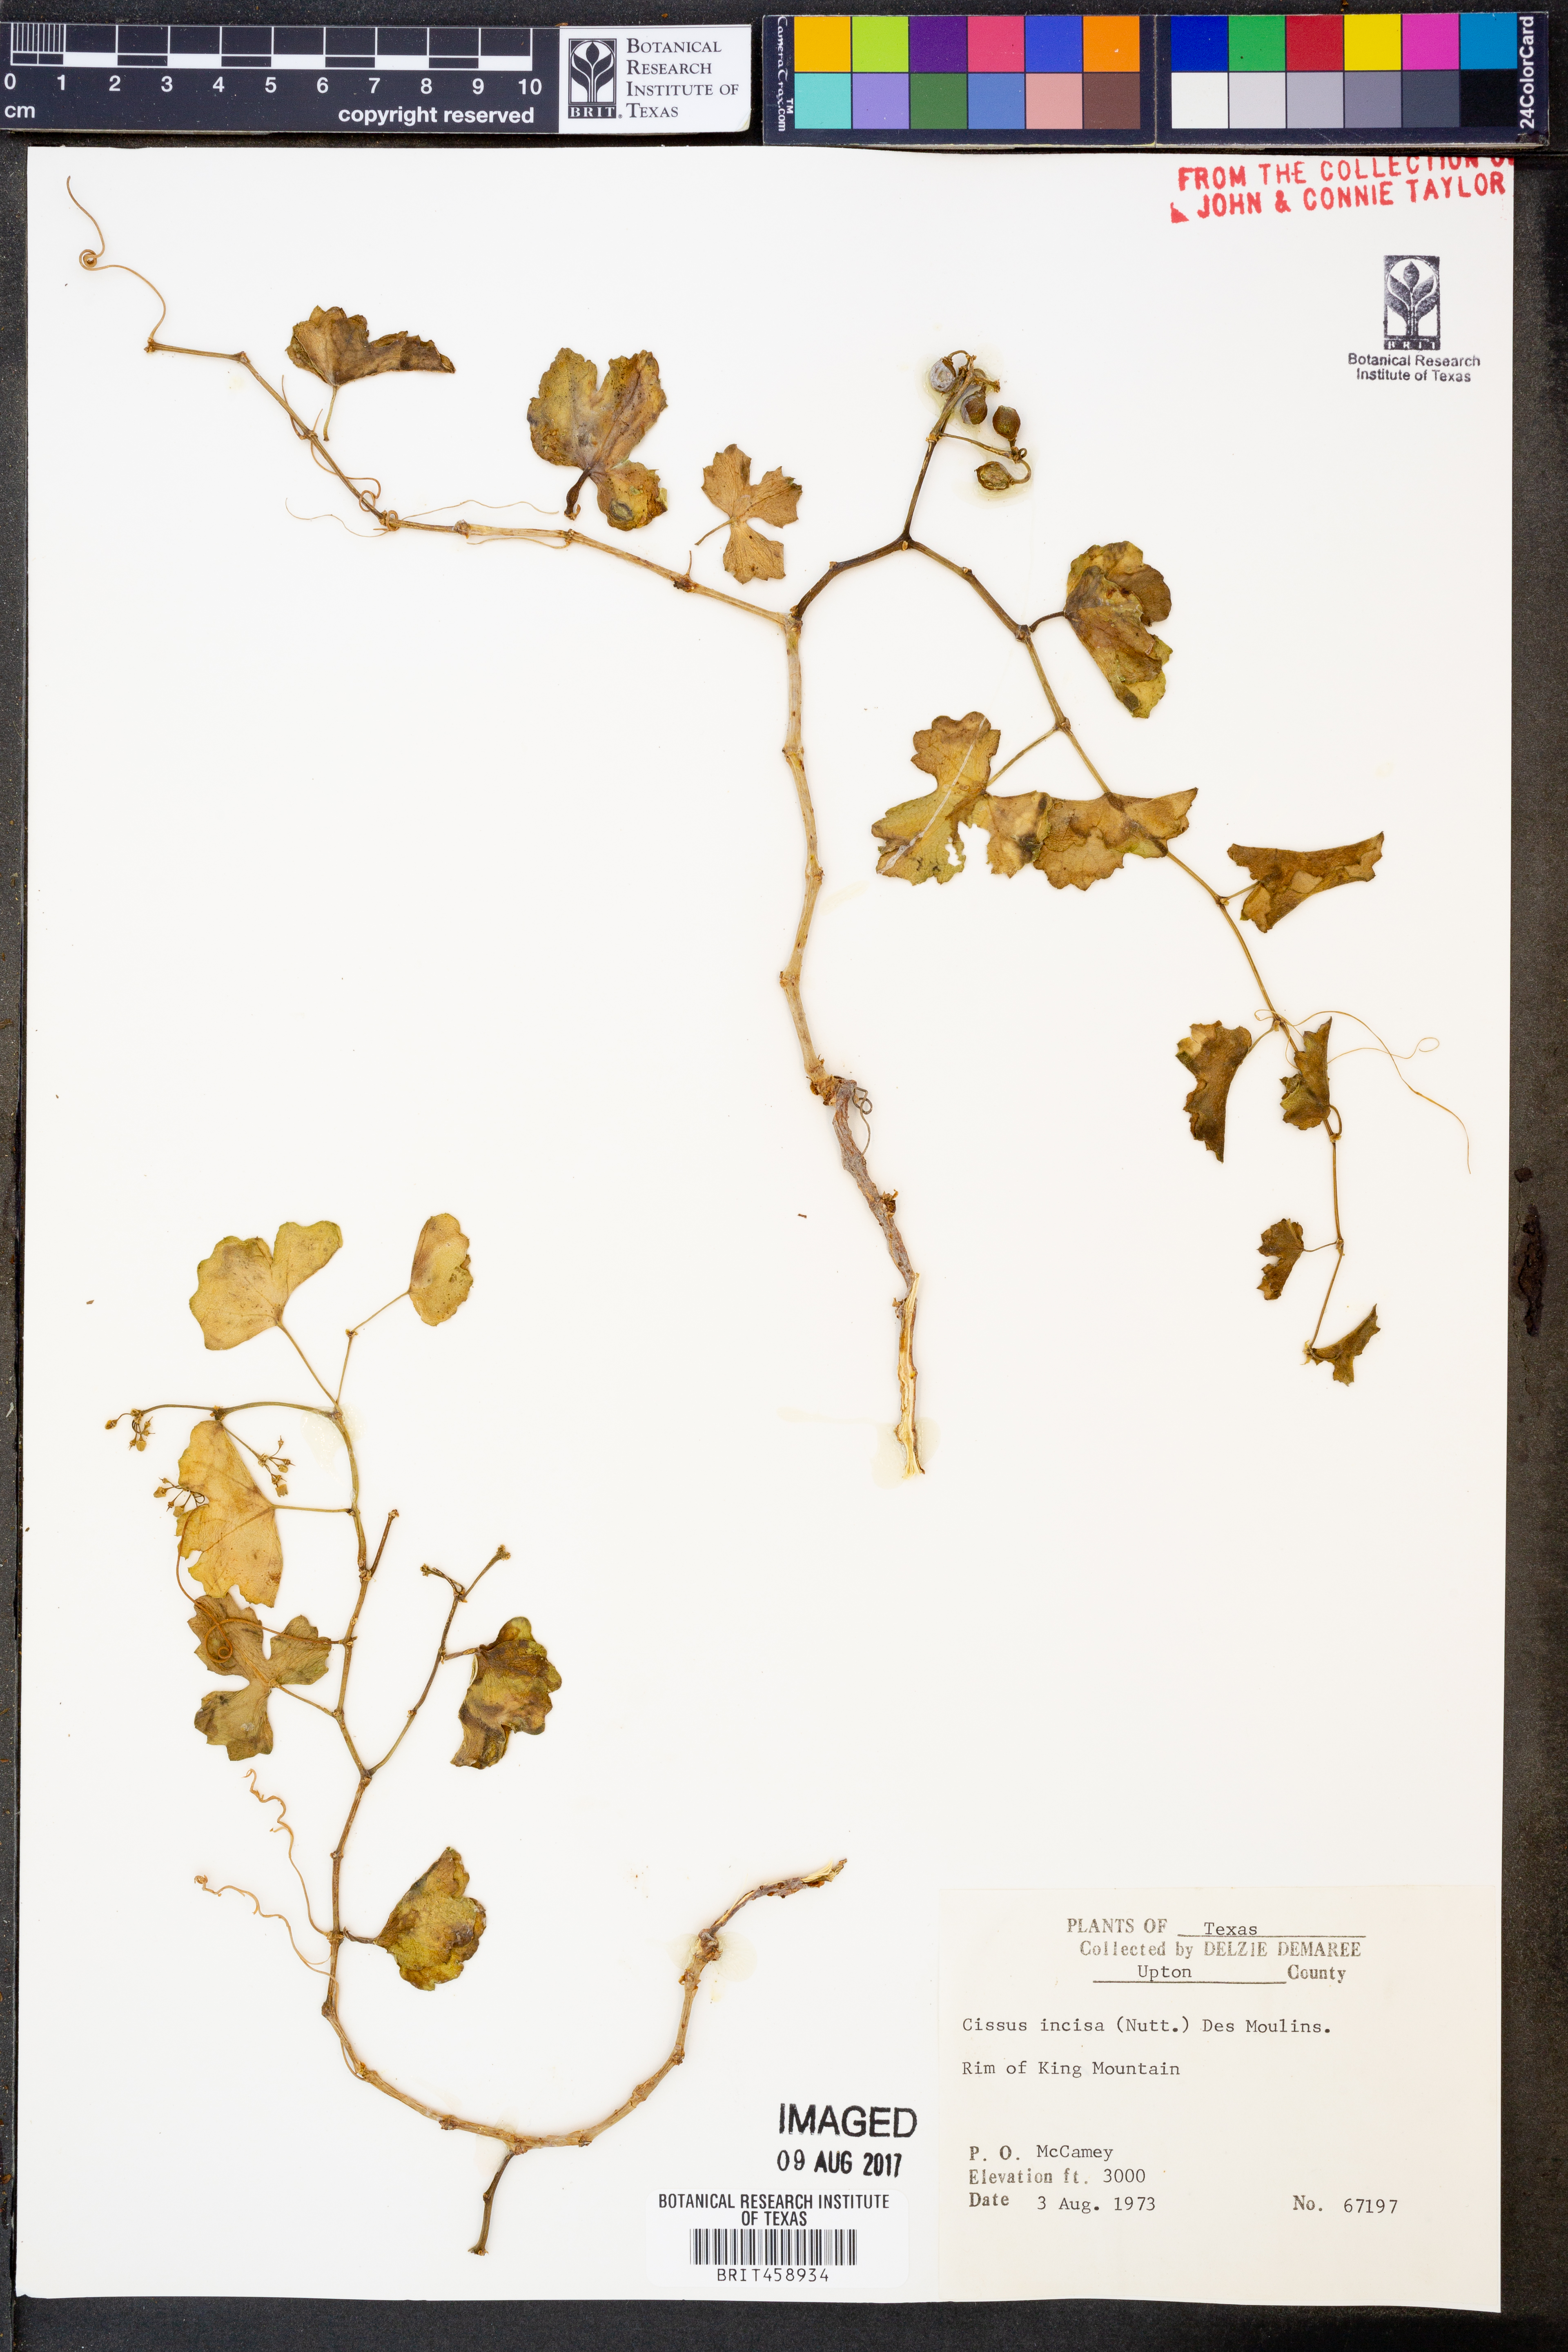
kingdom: Plantae
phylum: Tracheophyta
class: Magnoliopsida
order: Vitales
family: Vitaceae
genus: Cissus
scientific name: Cissus trifoliata
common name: Vine-sorrel
